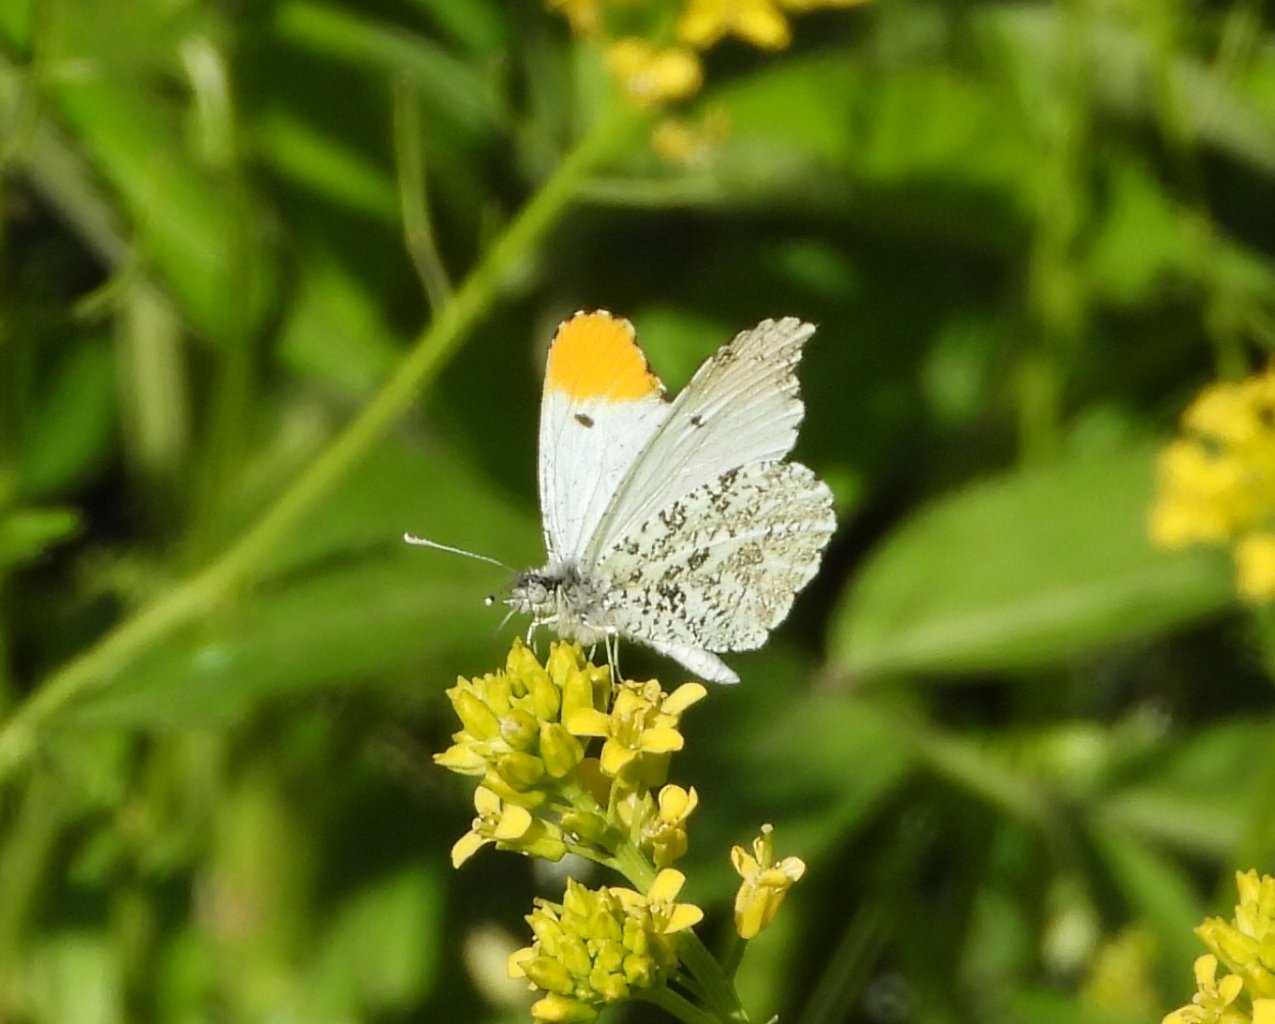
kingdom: Animalia
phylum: Arthropoda
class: Insecta
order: Lepidoptera
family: Pieridae
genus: Anthocharis
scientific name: Anthocharis midea
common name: Falcate Orangetip
